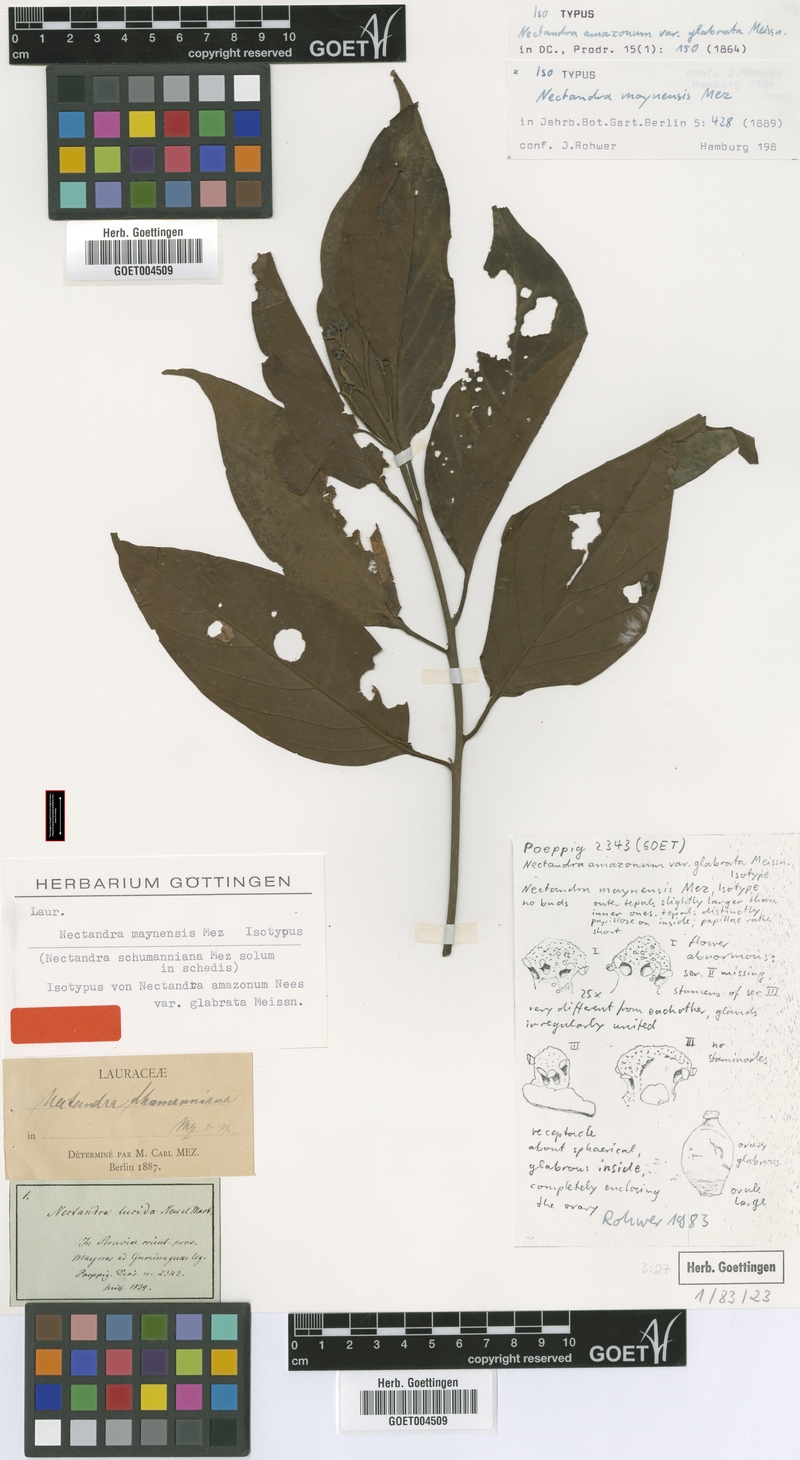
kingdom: Plantae
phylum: Tracheophyta
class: Magnoliopsida
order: Laurales
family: Lauraceae
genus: Nectandra
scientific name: Nectandra maynensis
